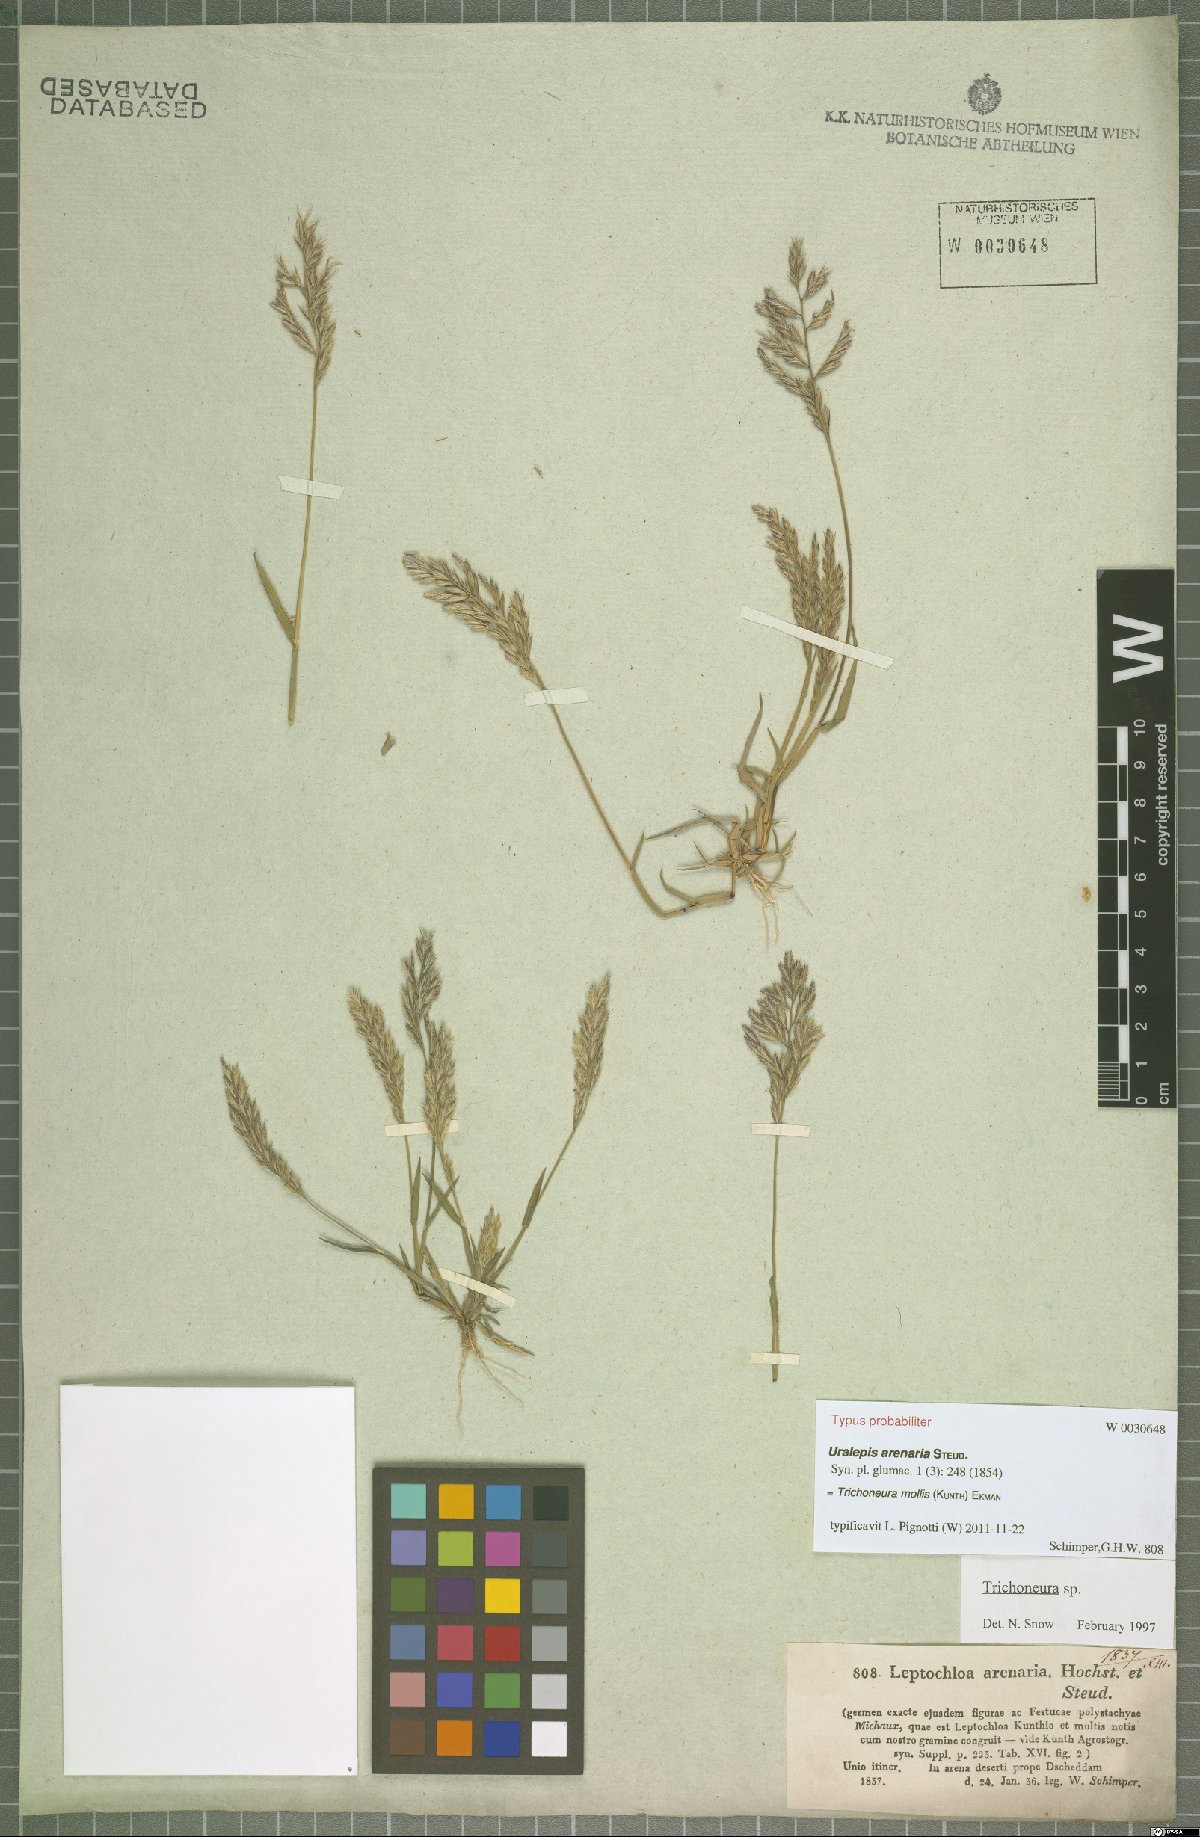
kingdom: Plantae
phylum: Tracheophyta
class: Liliopsida
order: Poales
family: Poaceae
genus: Trichoneura
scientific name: Trichoneura mollis
